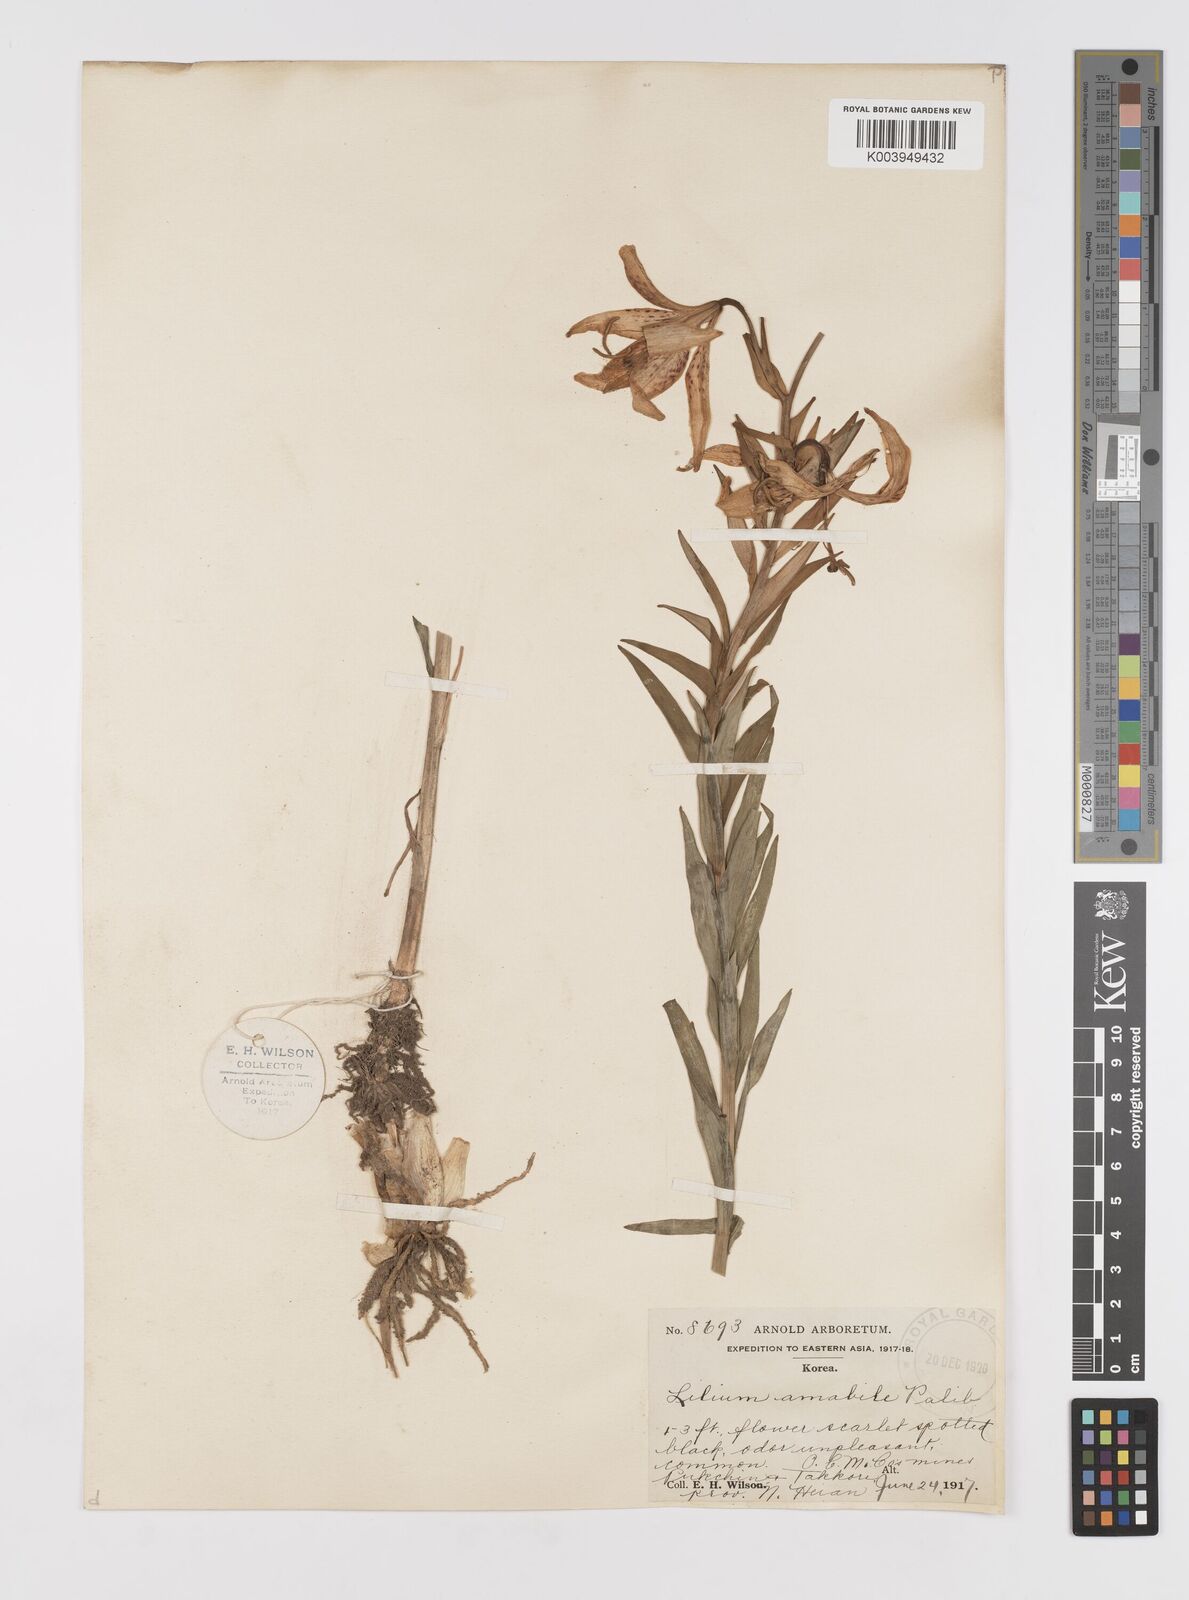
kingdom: Plantae
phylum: Tracheophyta
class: Liliopsida
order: Liliales
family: Liliaceae
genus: Lilium
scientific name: Lilium amabile
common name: Korean lily
